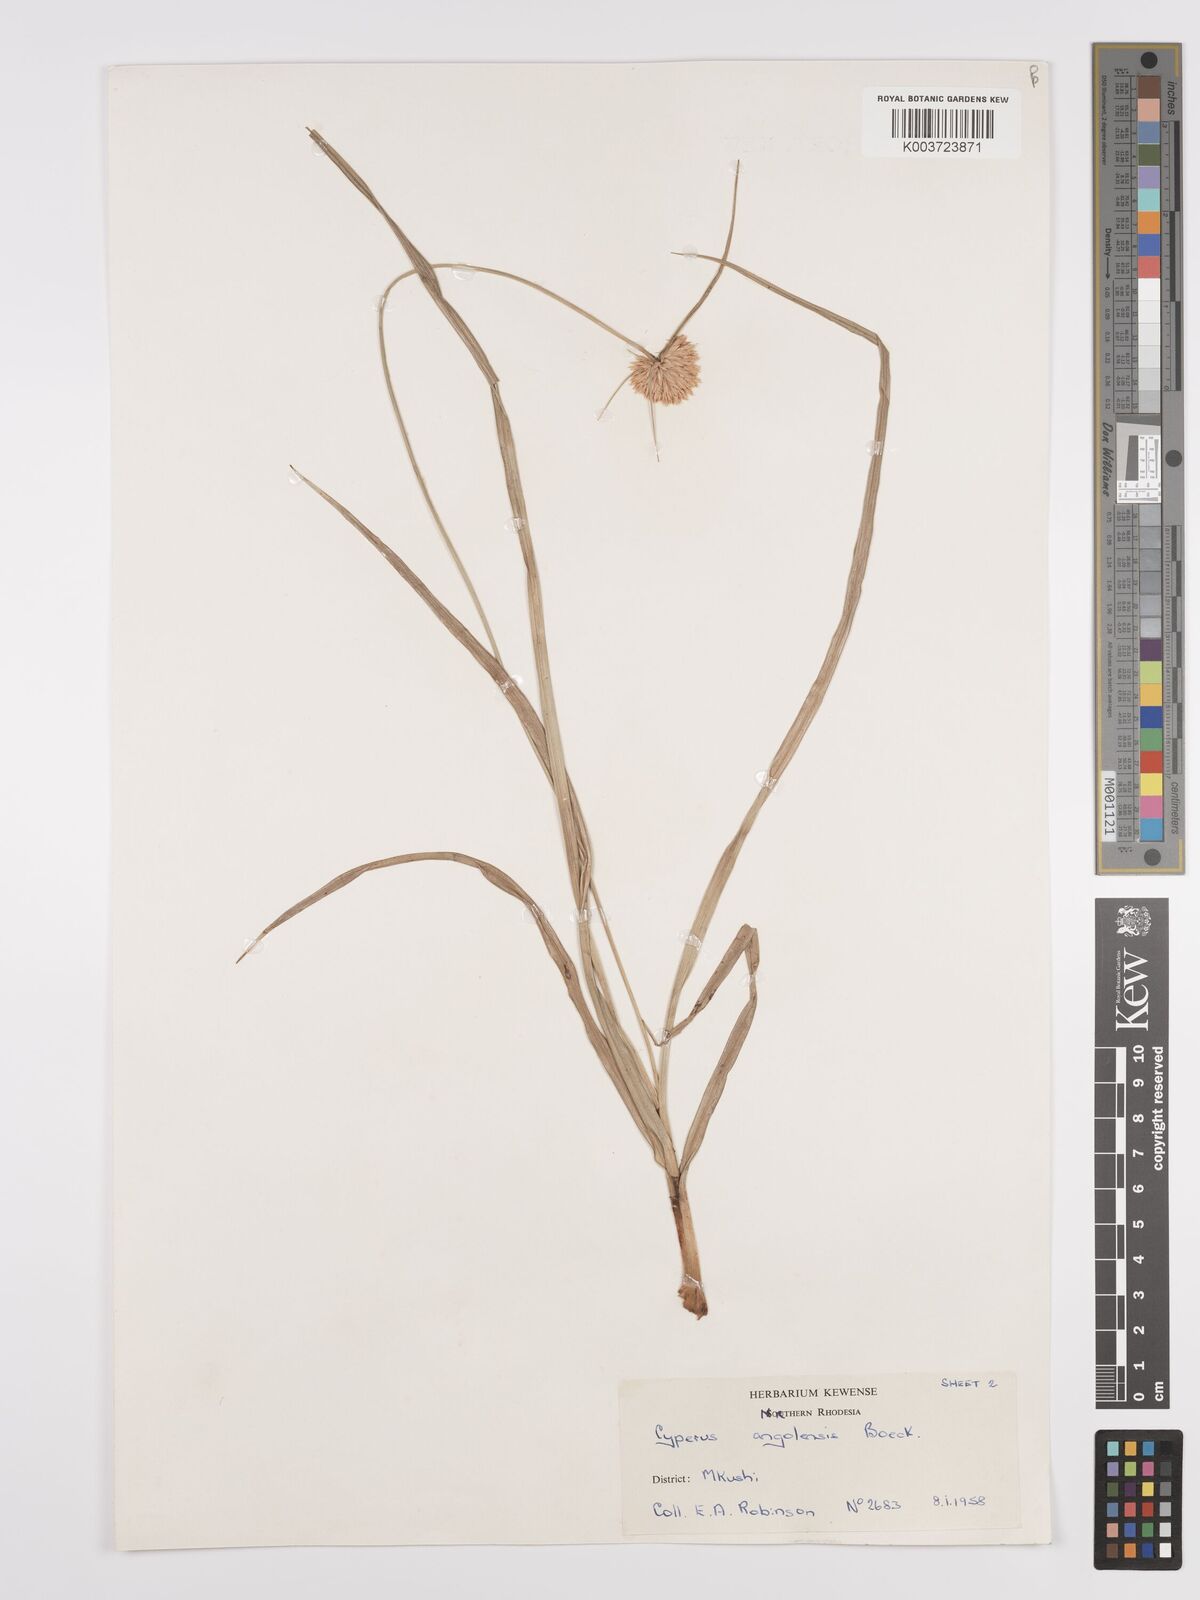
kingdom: Plantae
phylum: Tracheophyta
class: Liliopsida
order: Poales
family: Cyperaceae
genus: Cyperus
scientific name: Cyperus angolensis
